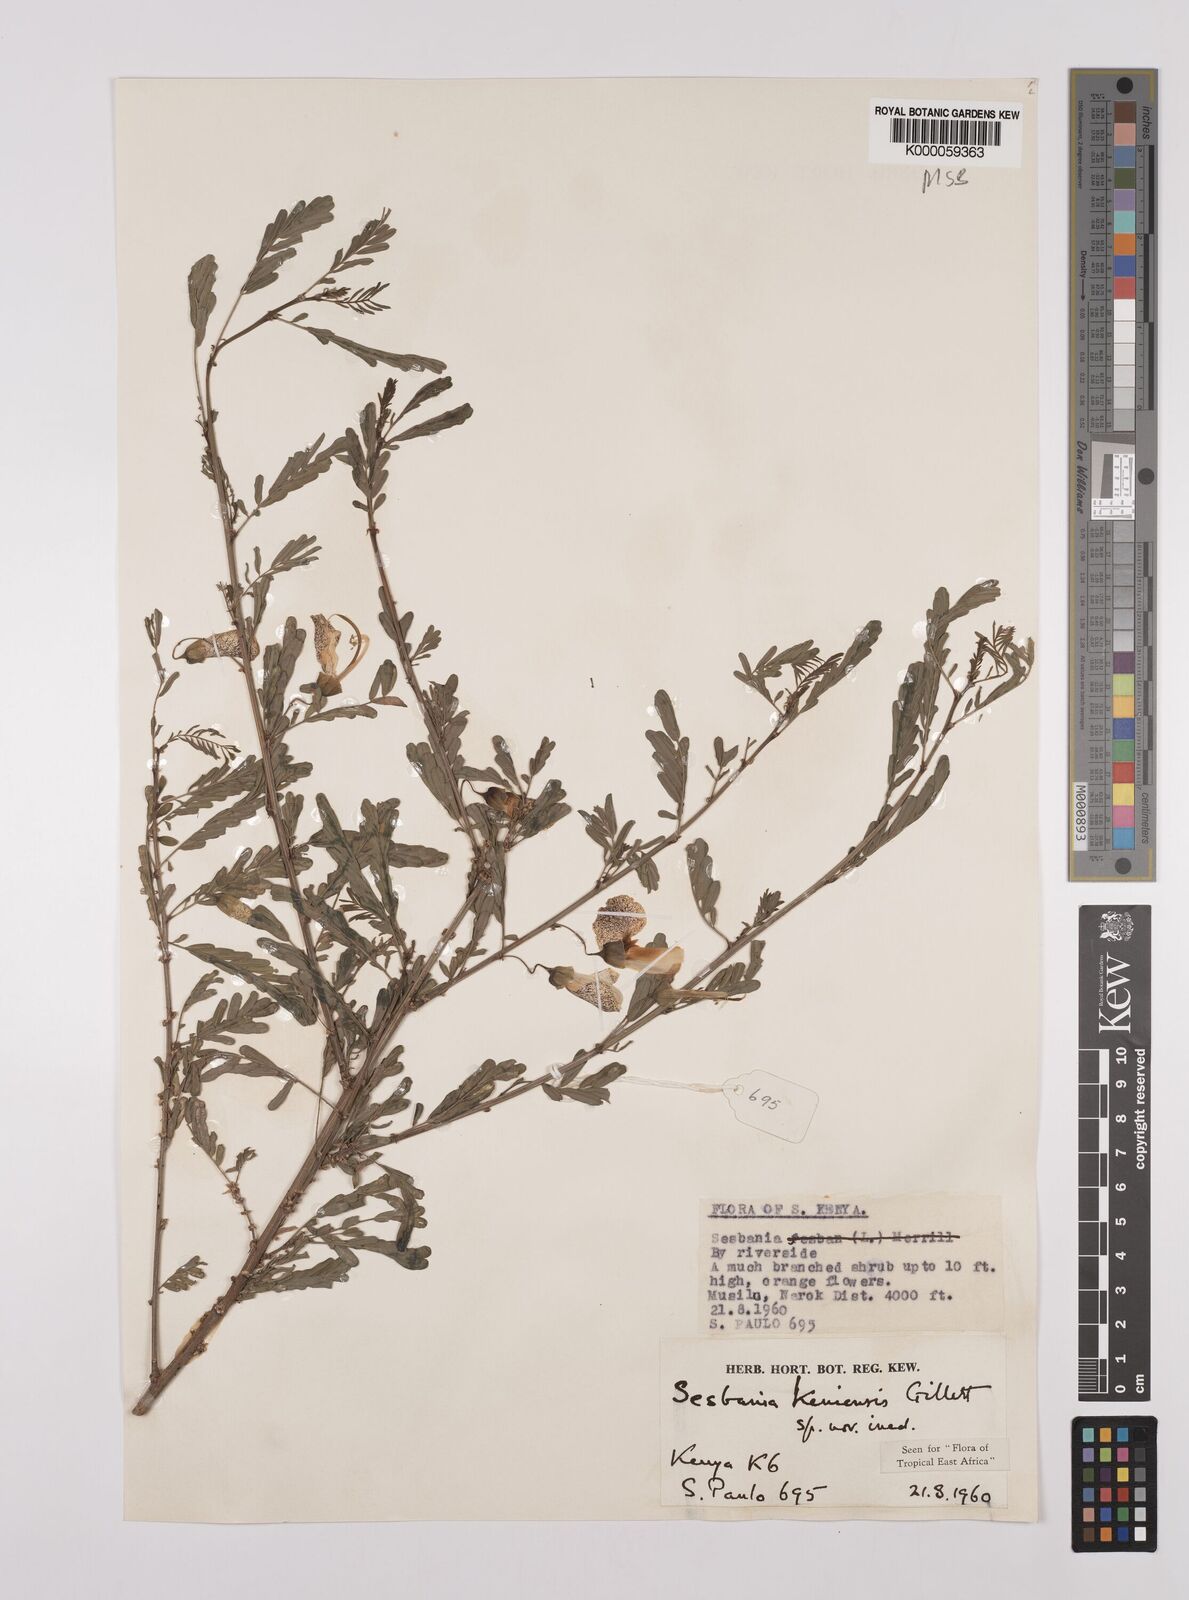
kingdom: Plantae
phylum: Tracheophyta
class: Magnoliopsida
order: Fabales
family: Fabaceae
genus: Sesbania
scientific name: Sesbania keniensis
